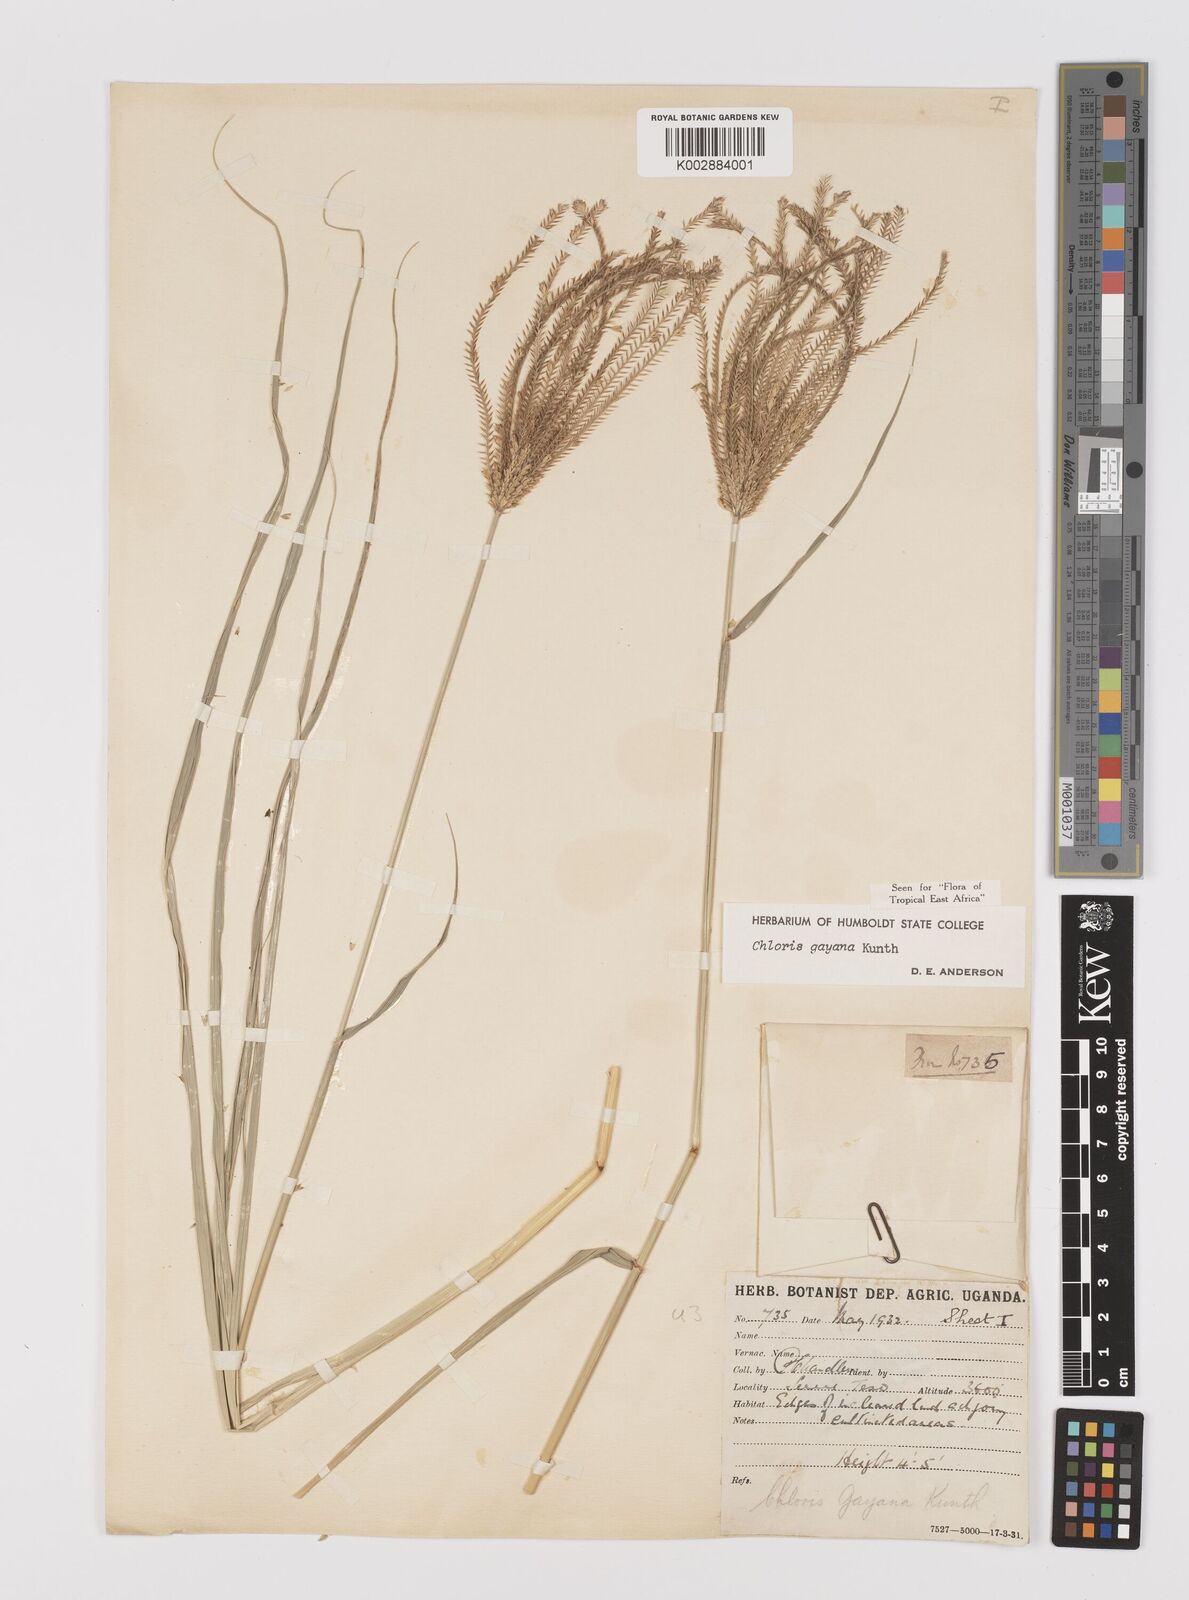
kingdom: Plantae
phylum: Tracheophyta
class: Liliopsida
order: Poales
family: Poaceae
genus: Chloris
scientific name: Chloris gayana
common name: Rhodes grass
